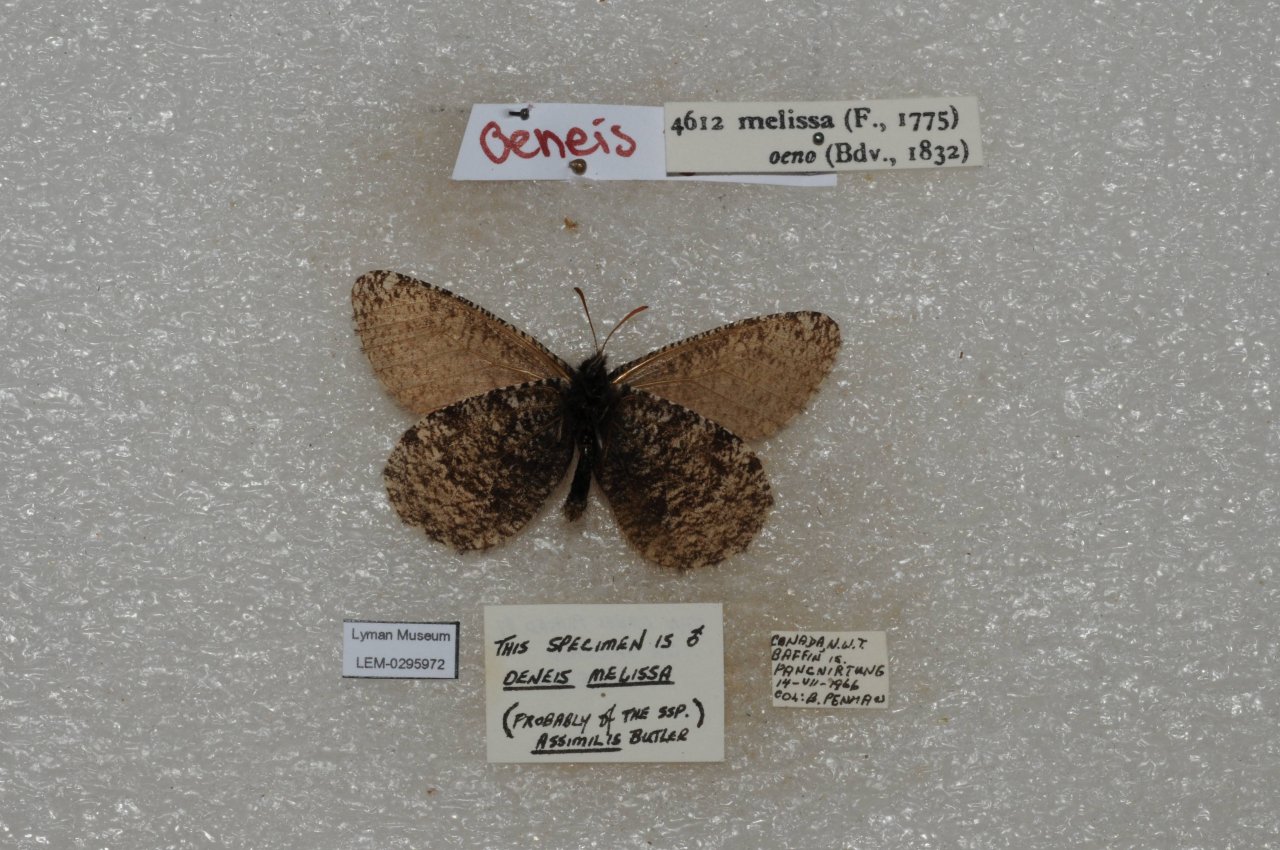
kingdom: Animalia
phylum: Arthropoda
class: Insecta
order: Lepidoptera
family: Nymphalidae
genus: Oeneis
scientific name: Oeneis melissa
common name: Melissa Arctic
